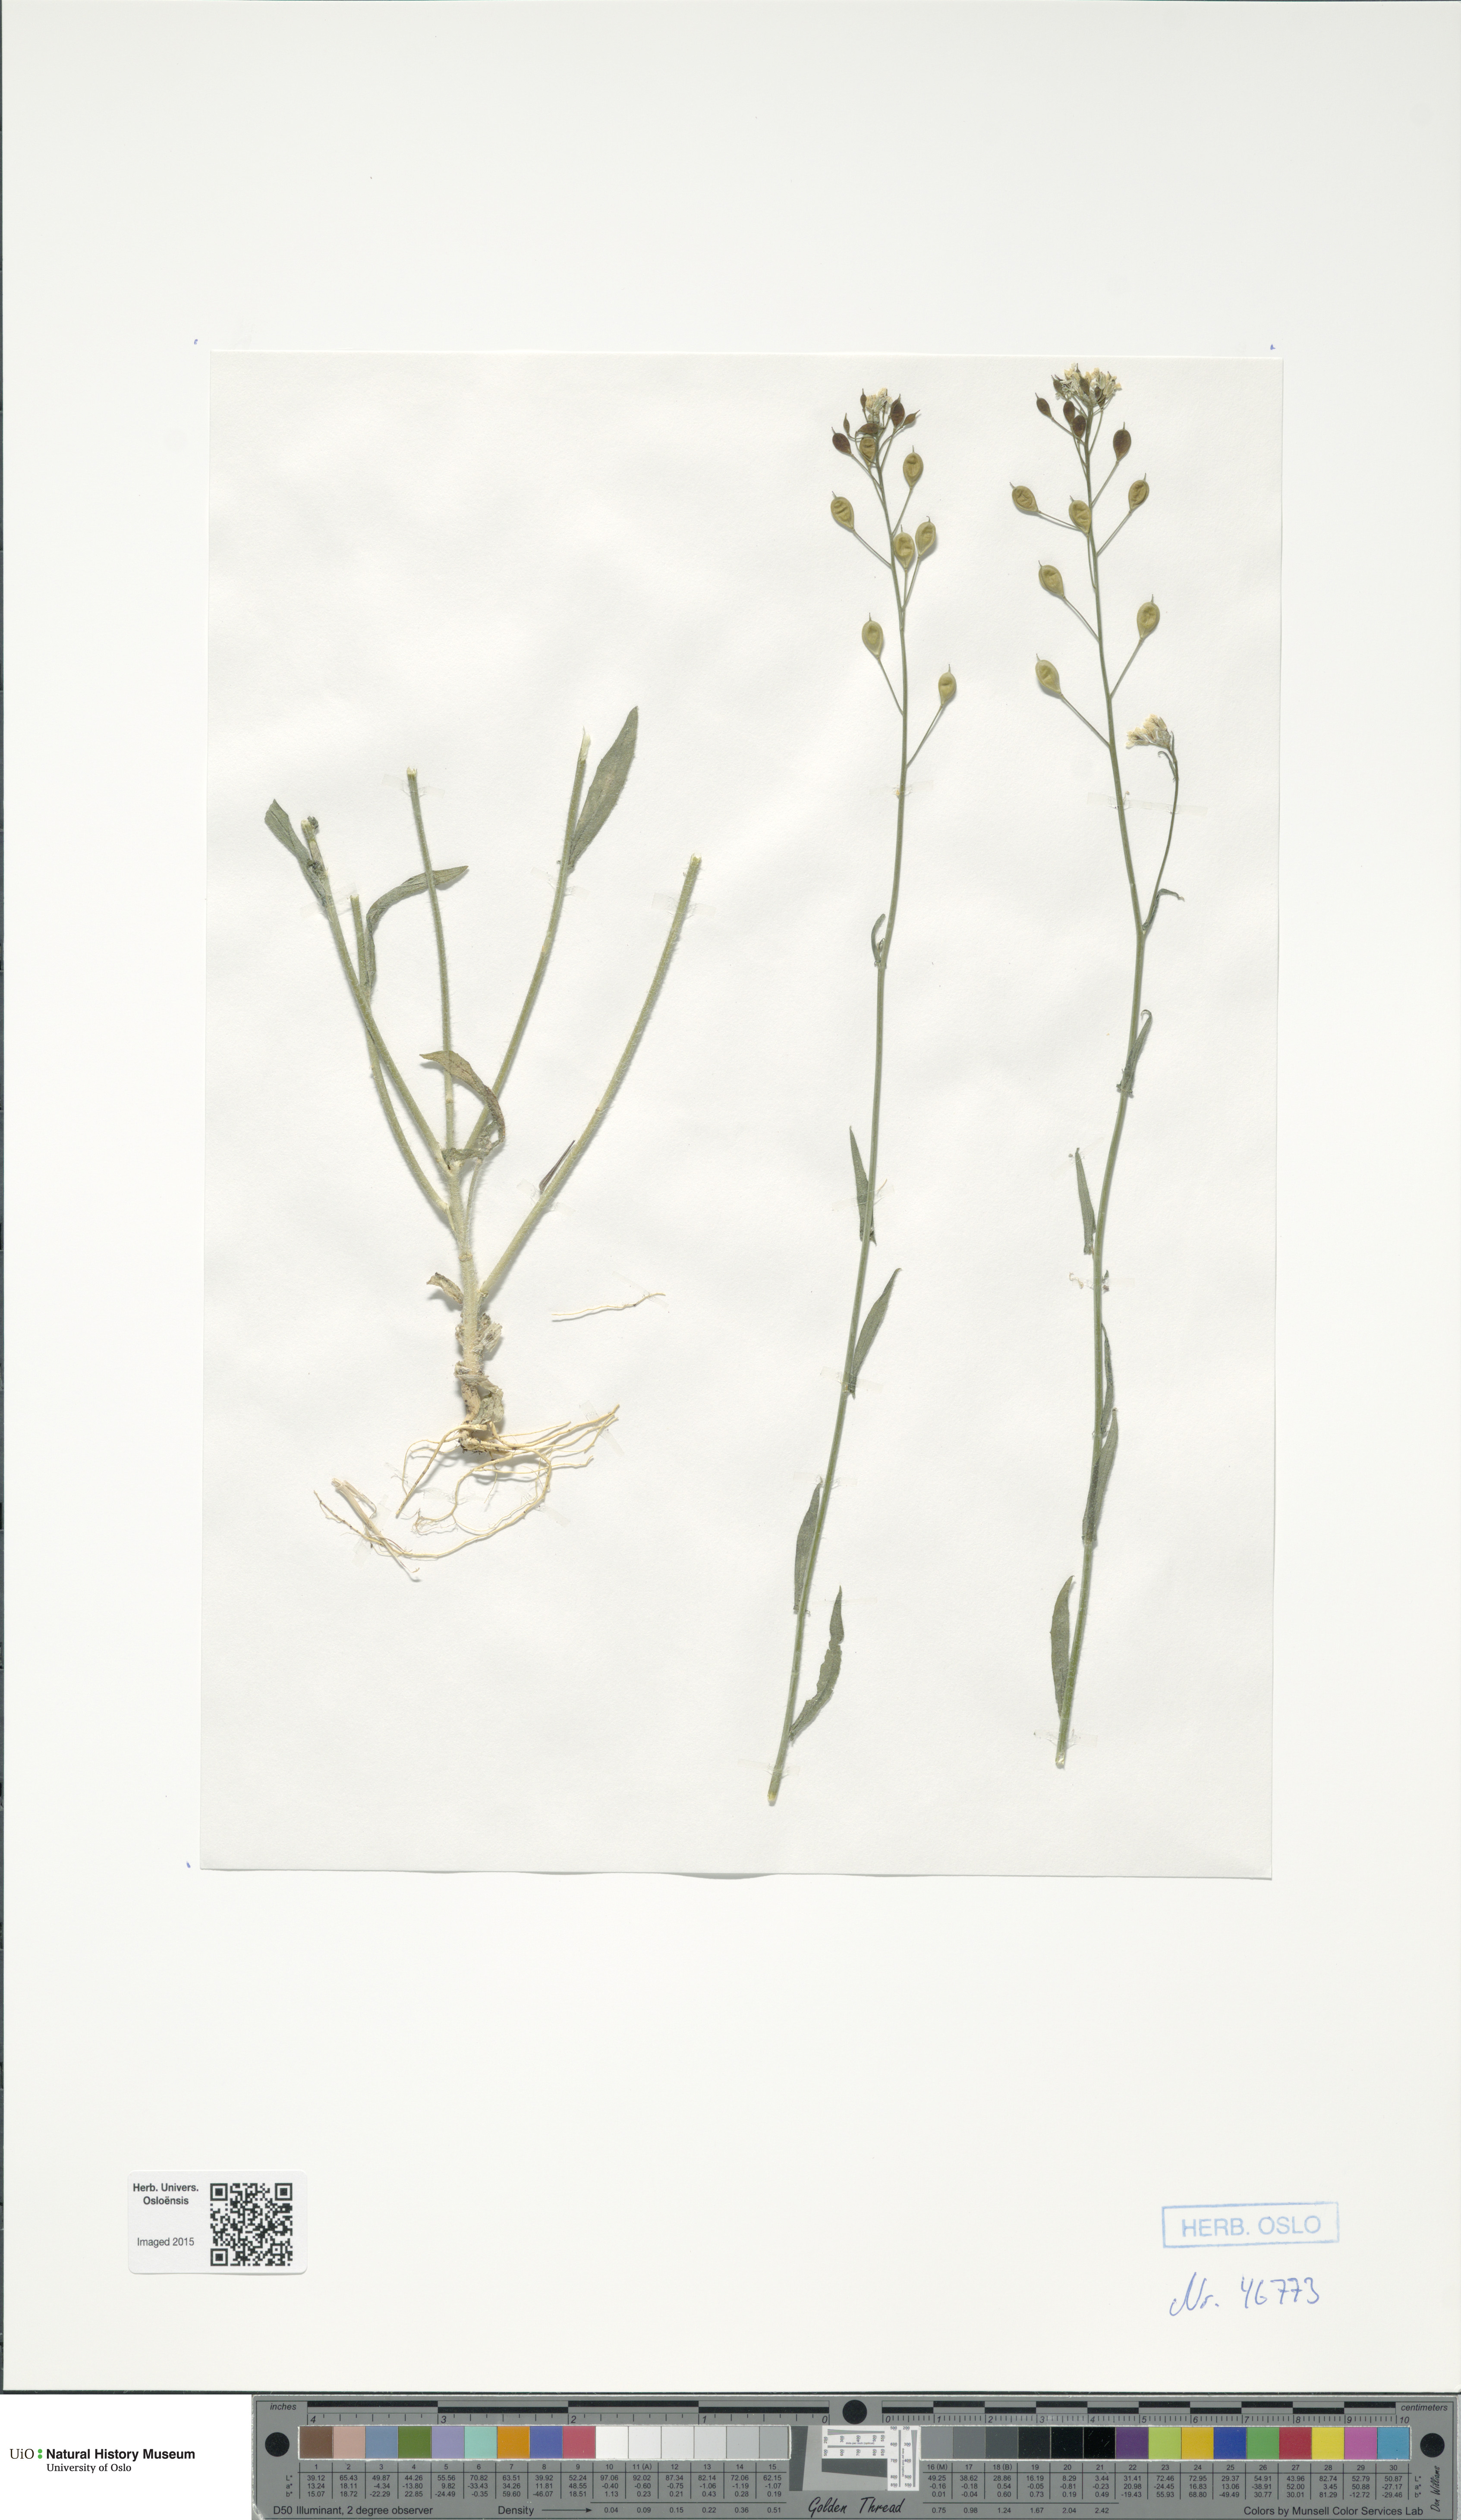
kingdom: Plantae
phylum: Tracheophyta
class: Magnoliopsida
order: Brassicales
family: Brassicaceae
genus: Camelina
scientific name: Camelina sativa
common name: Gold-of-pleasure
